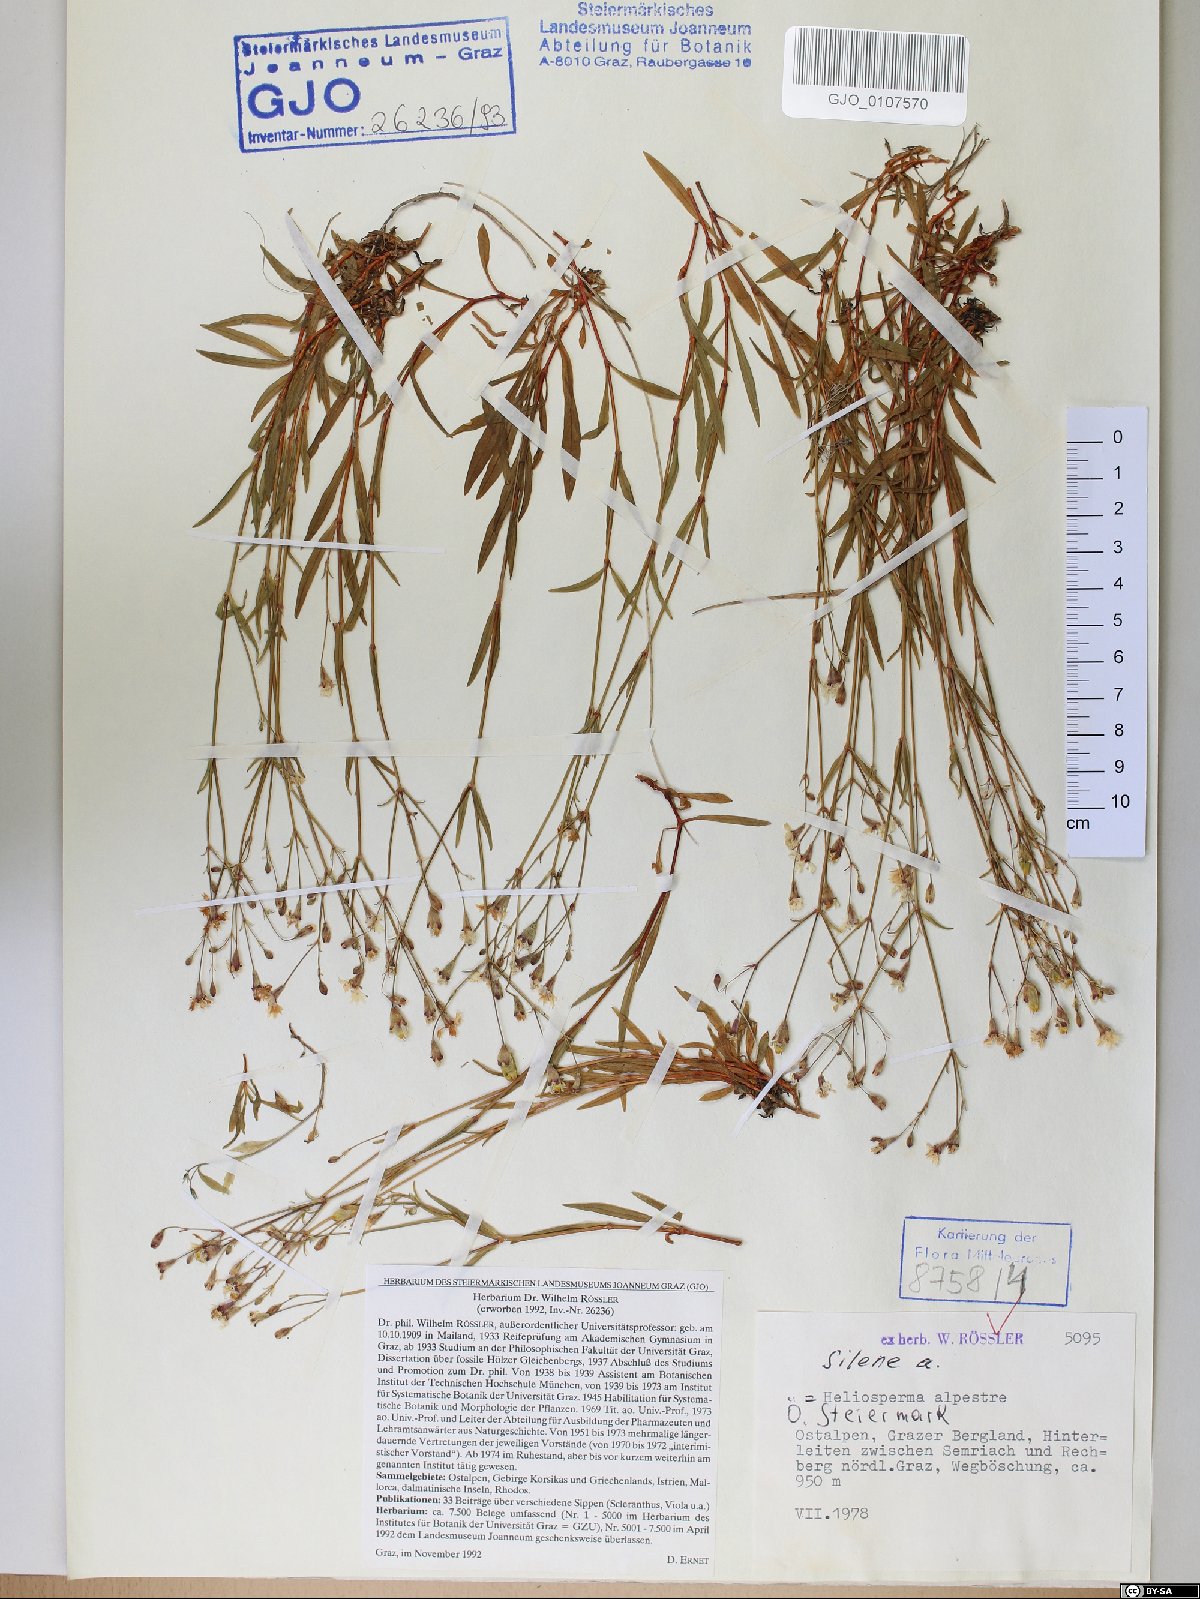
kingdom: Plantae
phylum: Tracheophyta
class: Magnoliopsida
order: Caryophyllales
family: Caryophyllaceae
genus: Heliosperma
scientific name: Heliosperma alpestre
